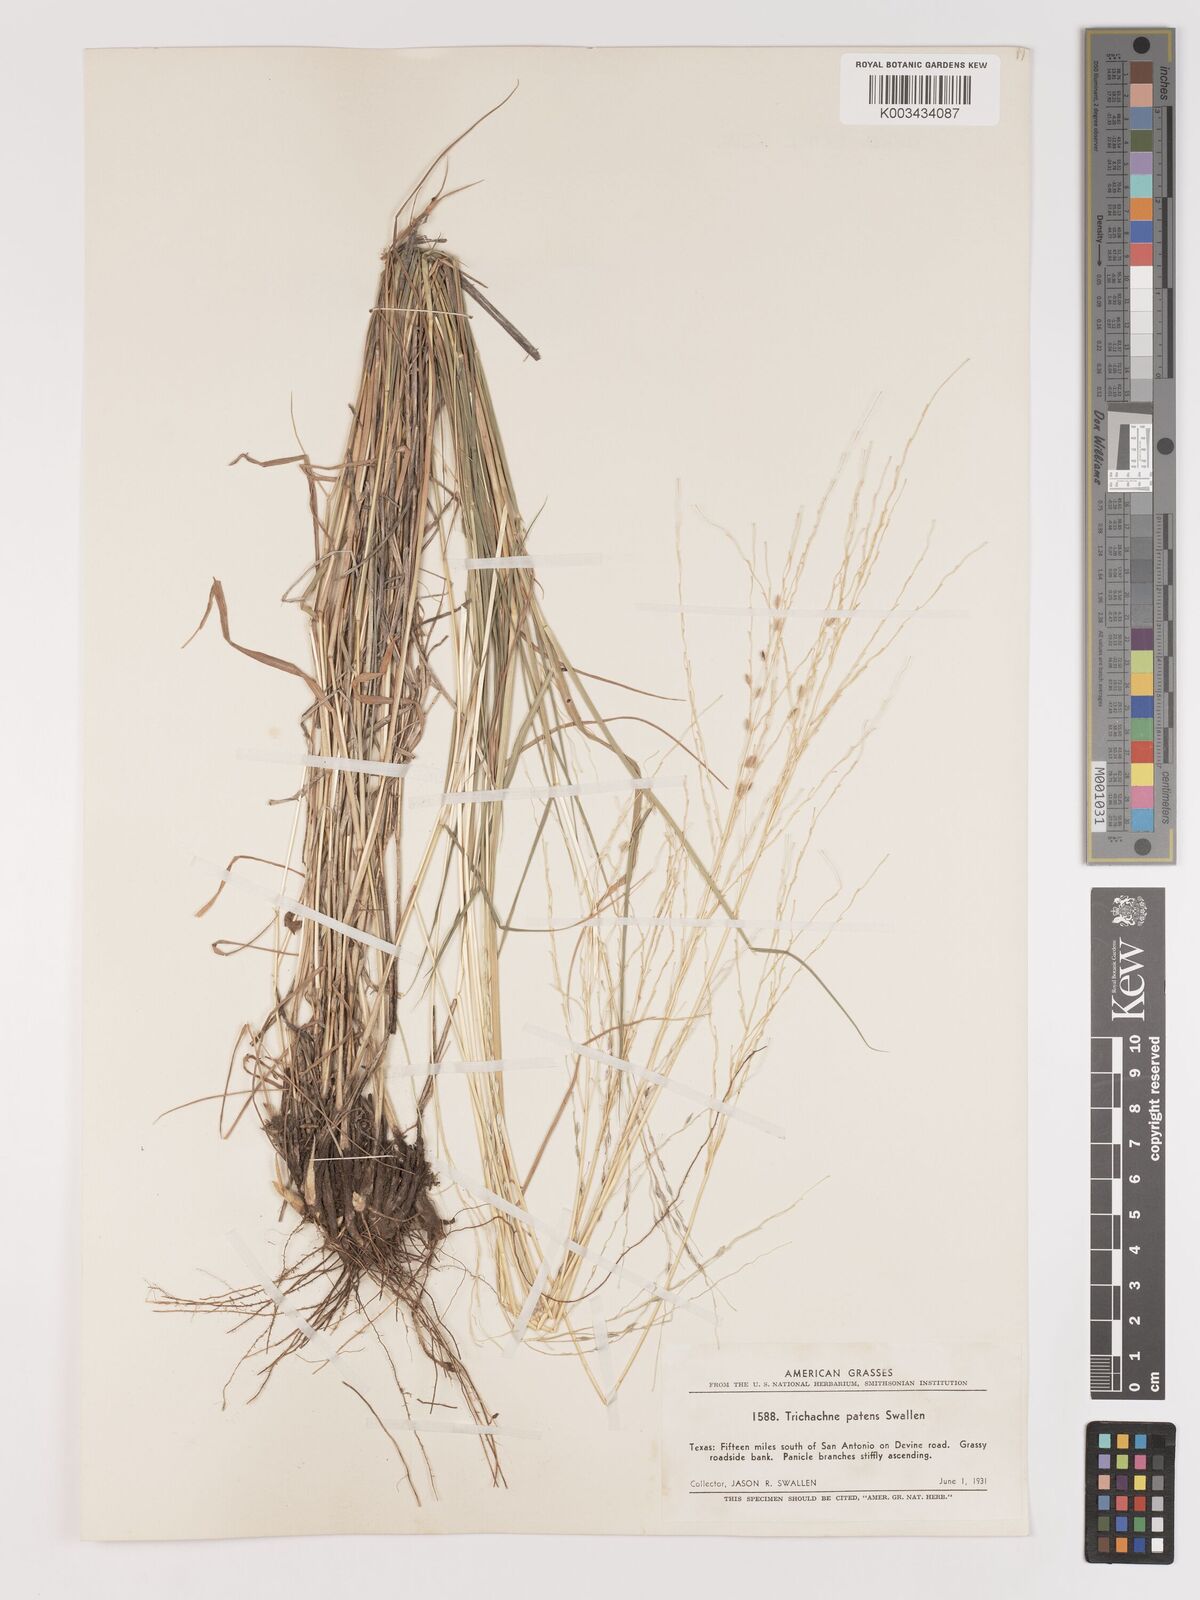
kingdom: Plantae
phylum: Tracheophyta
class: Liliopsida
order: Poales
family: Poaceae
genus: Digitaria
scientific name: Digitaria patens
